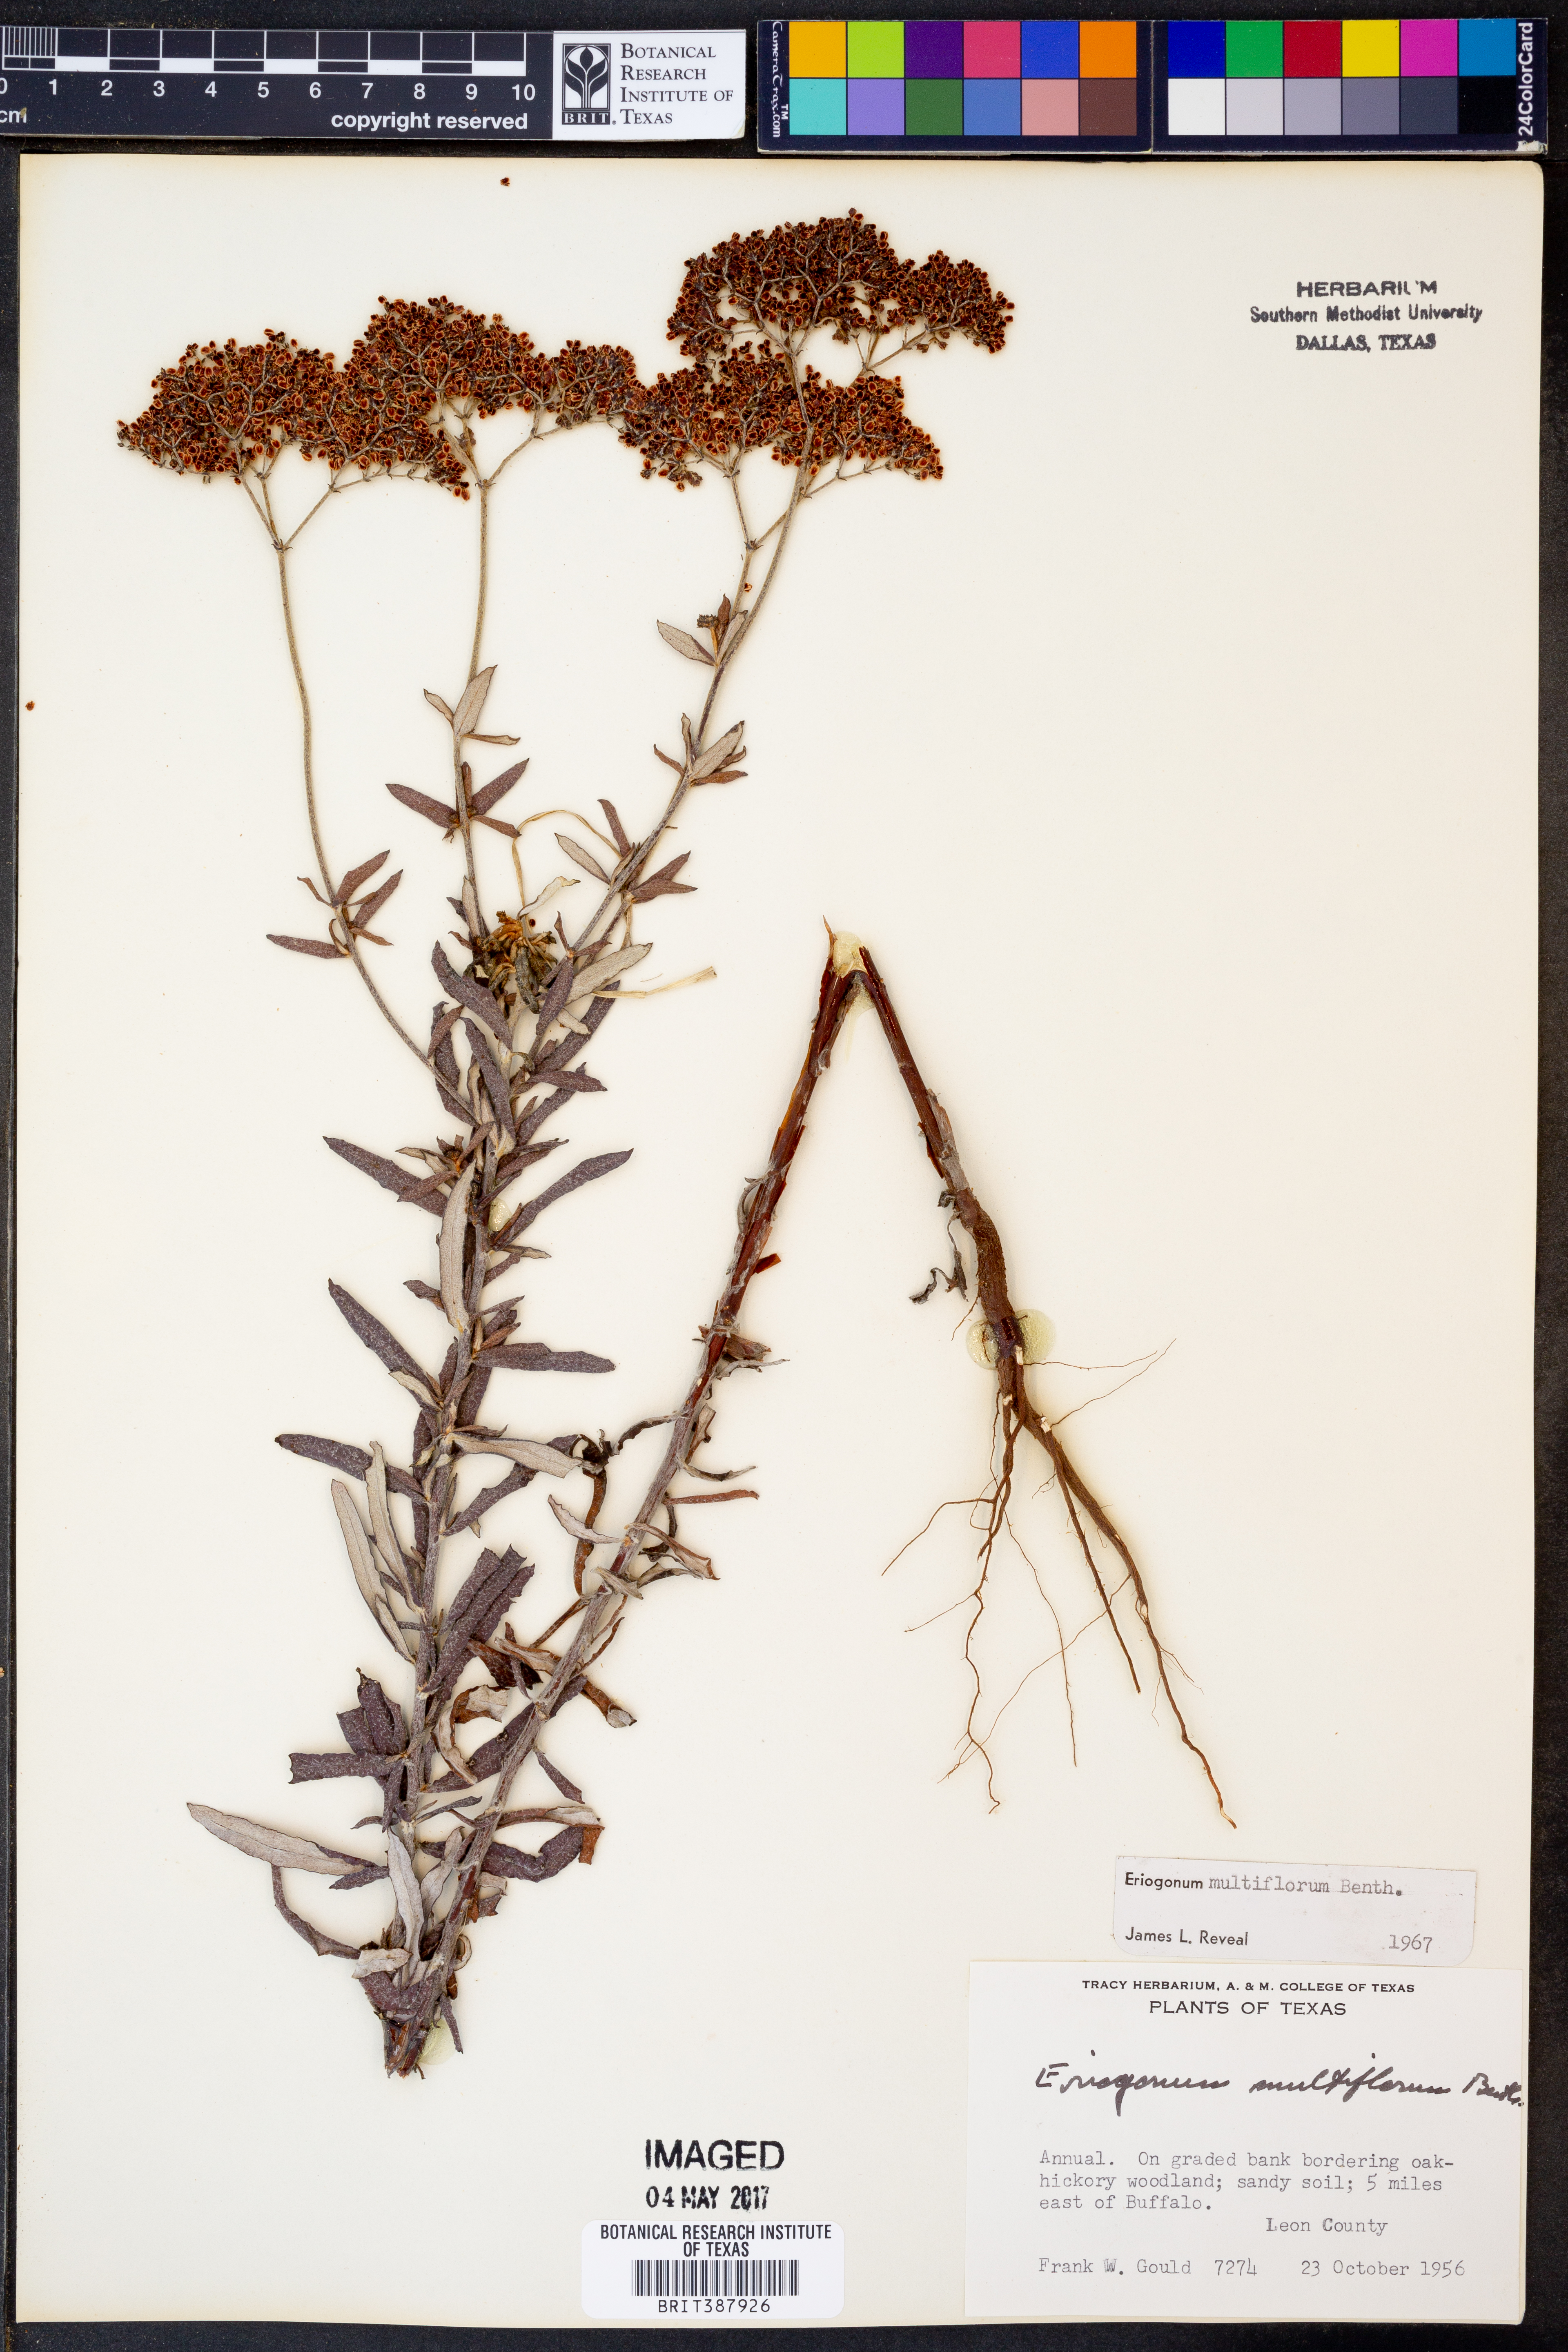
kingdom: Plantae
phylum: Tracheophyta
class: Magnoliopsida
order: Caryophyllales
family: Polygonaceae
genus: Eriogonum
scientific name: Eriogonum multiflorum
